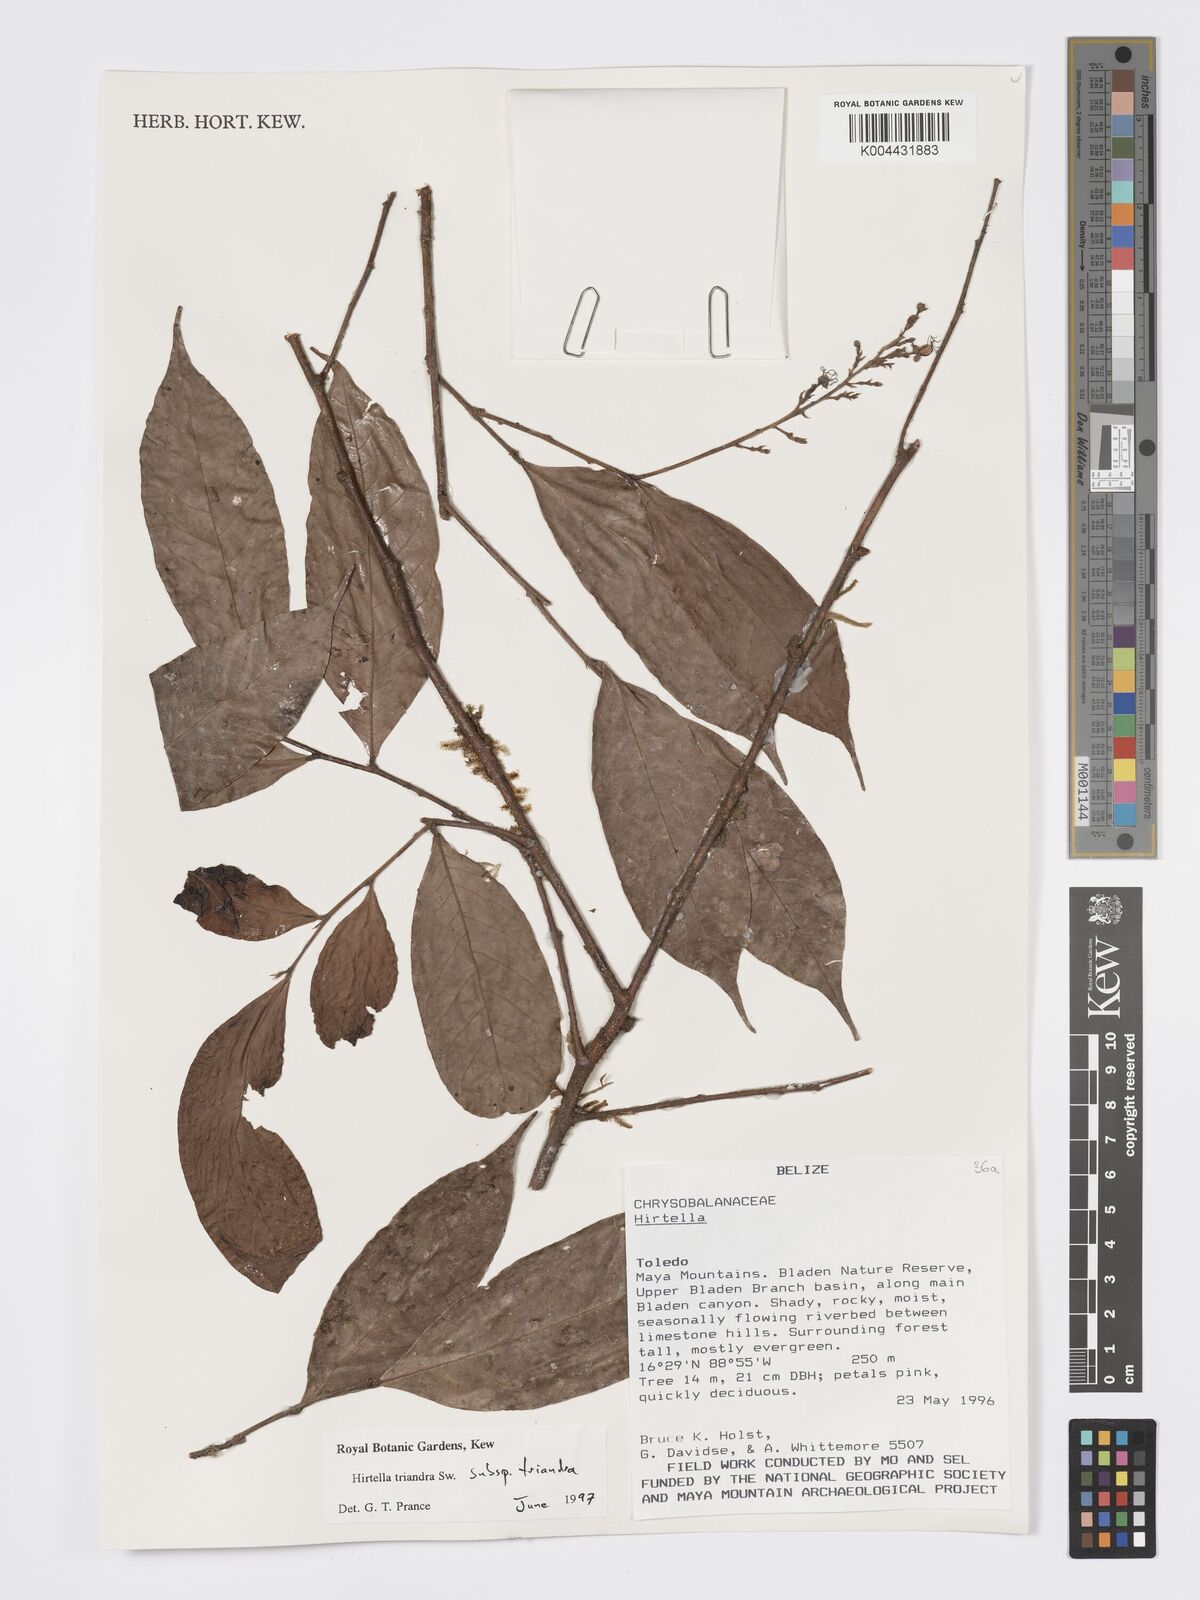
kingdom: Plantae
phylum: Tracheophyta
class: Magnoliopsida
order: Malpighiales
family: Chrysobalanaceae
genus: Hirtella
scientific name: Hirtella triandra
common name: Hairy plum
